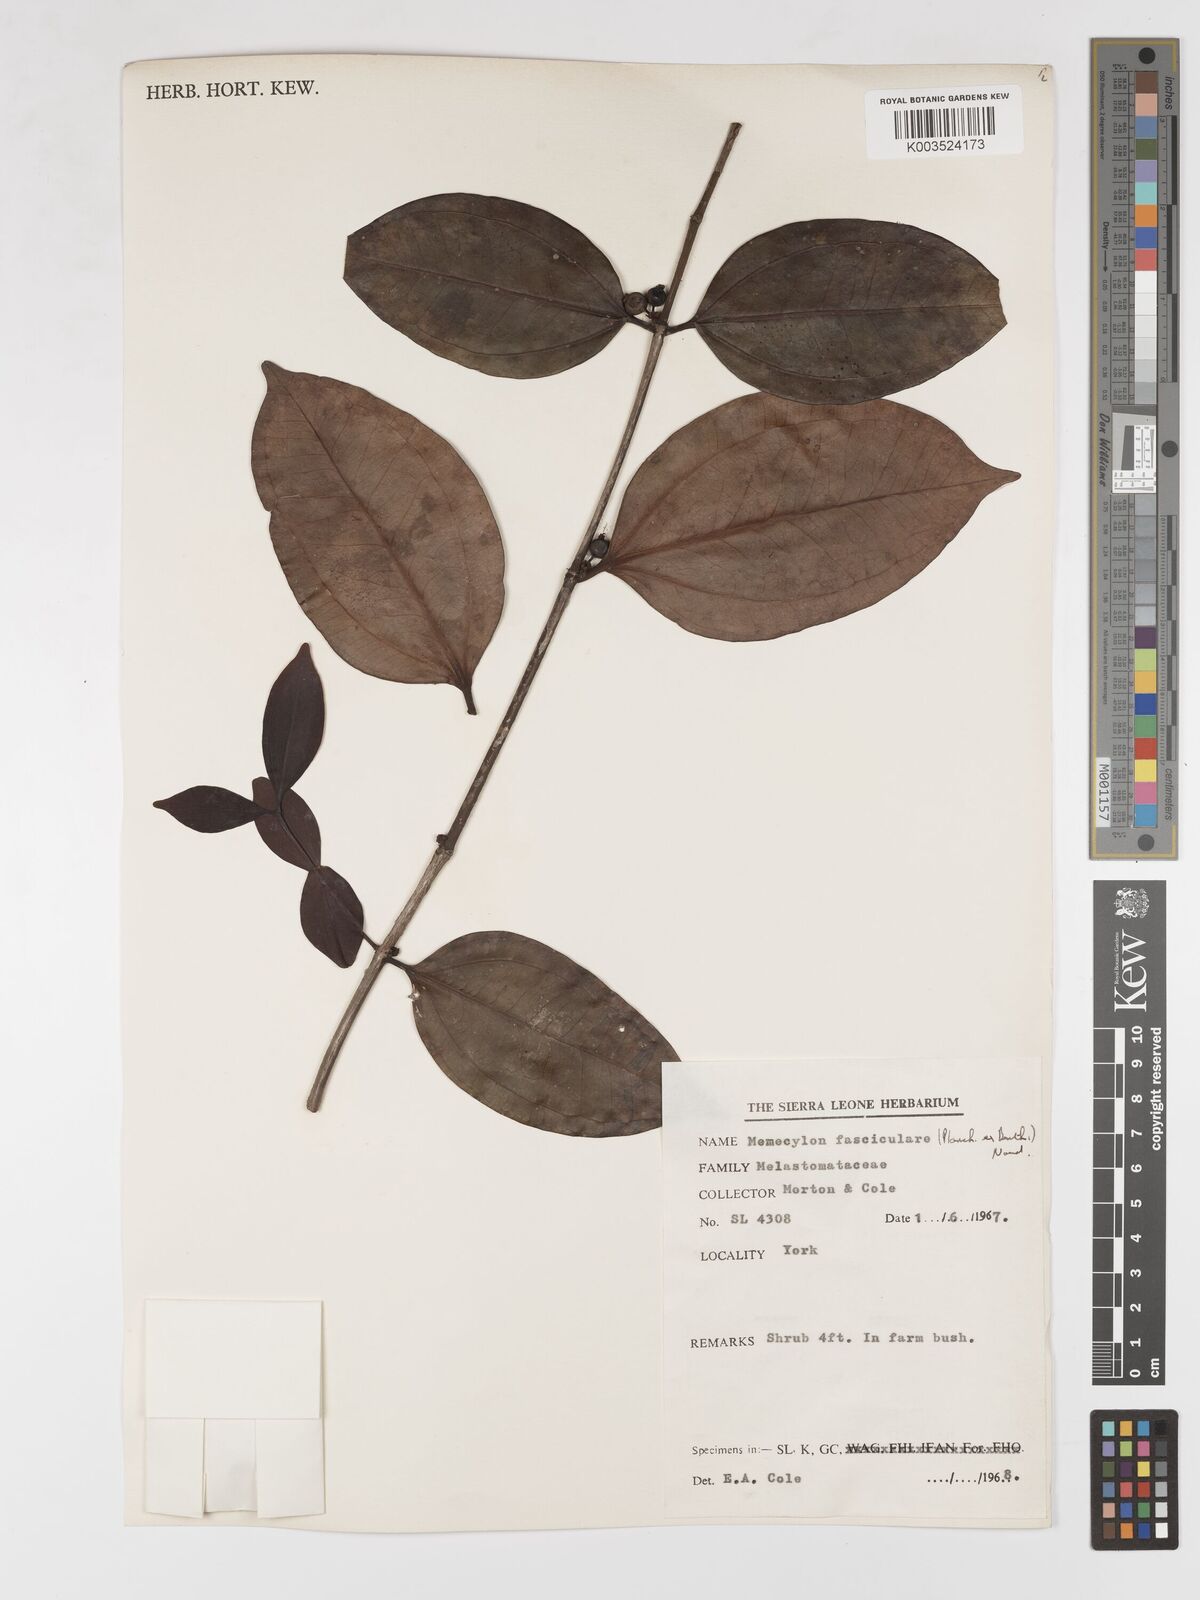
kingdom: Plantae
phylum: Tracheophyta
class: Magnoliopsida
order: Myrtales
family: Melastomataceae
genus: Warneckea
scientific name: Warneckea fascicularis
